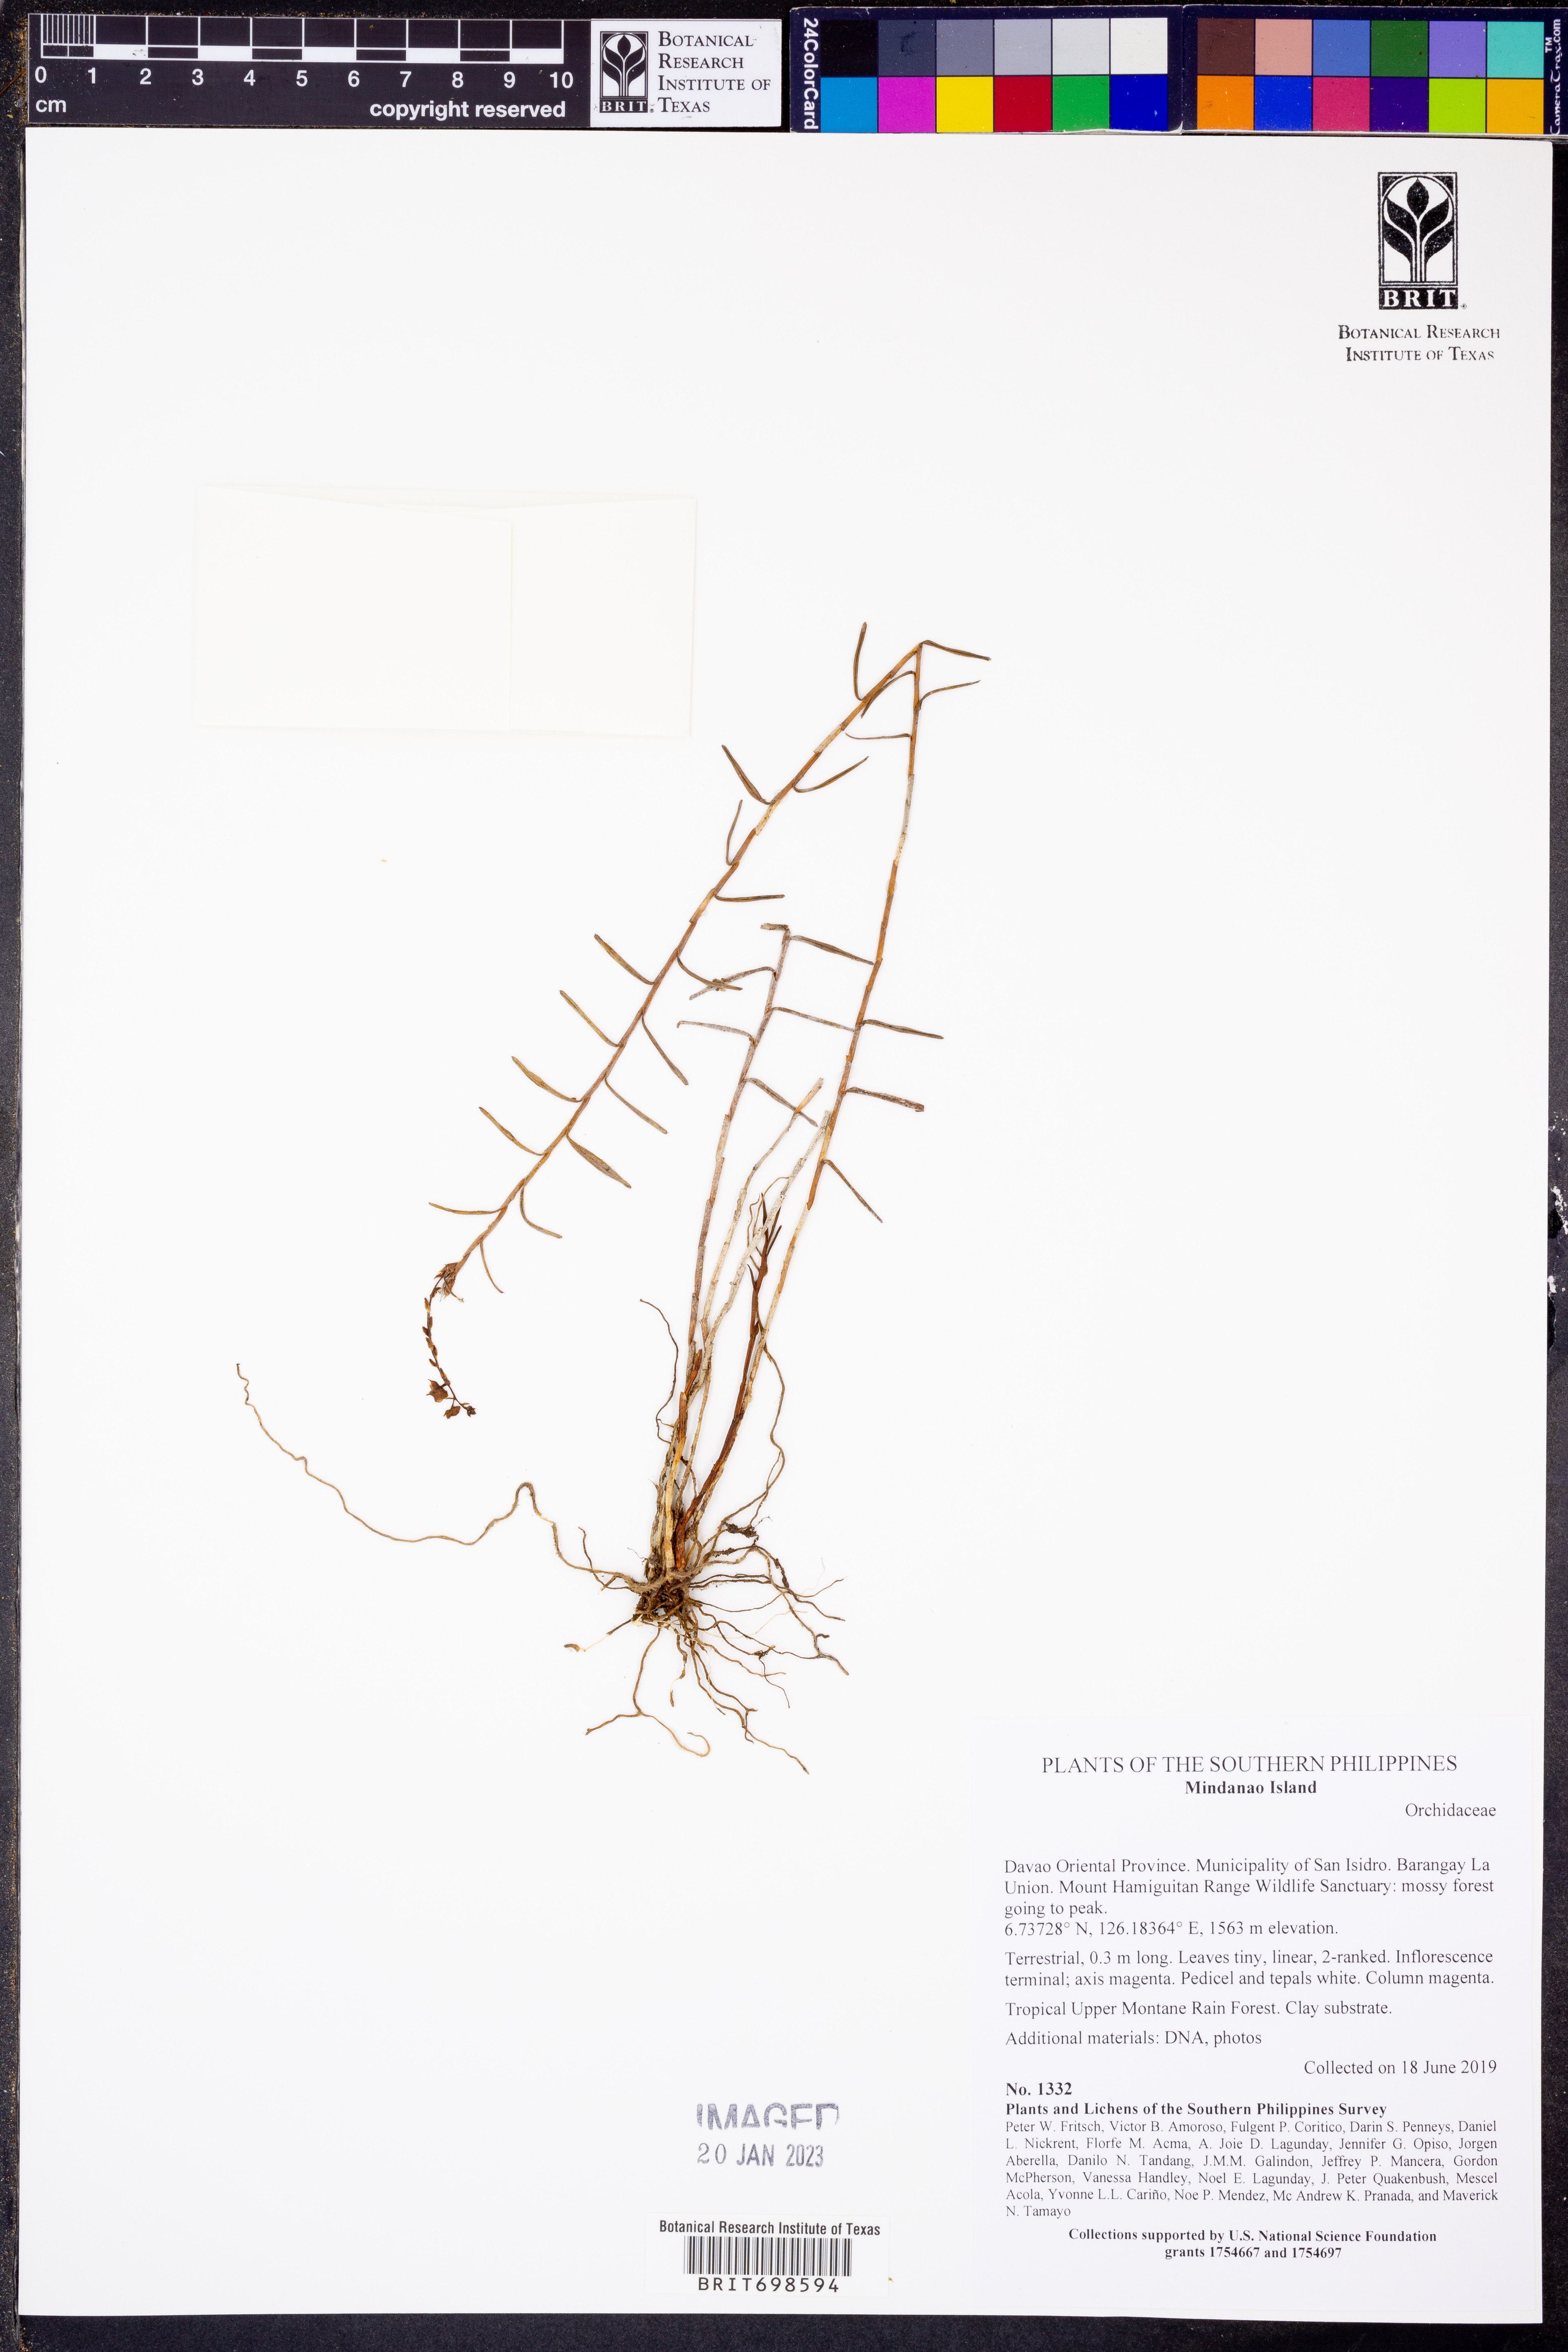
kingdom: Plantae
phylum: Tracheophyta
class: Liliopsida
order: Asparagales
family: Orchidaceae
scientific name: Orchidaceae
